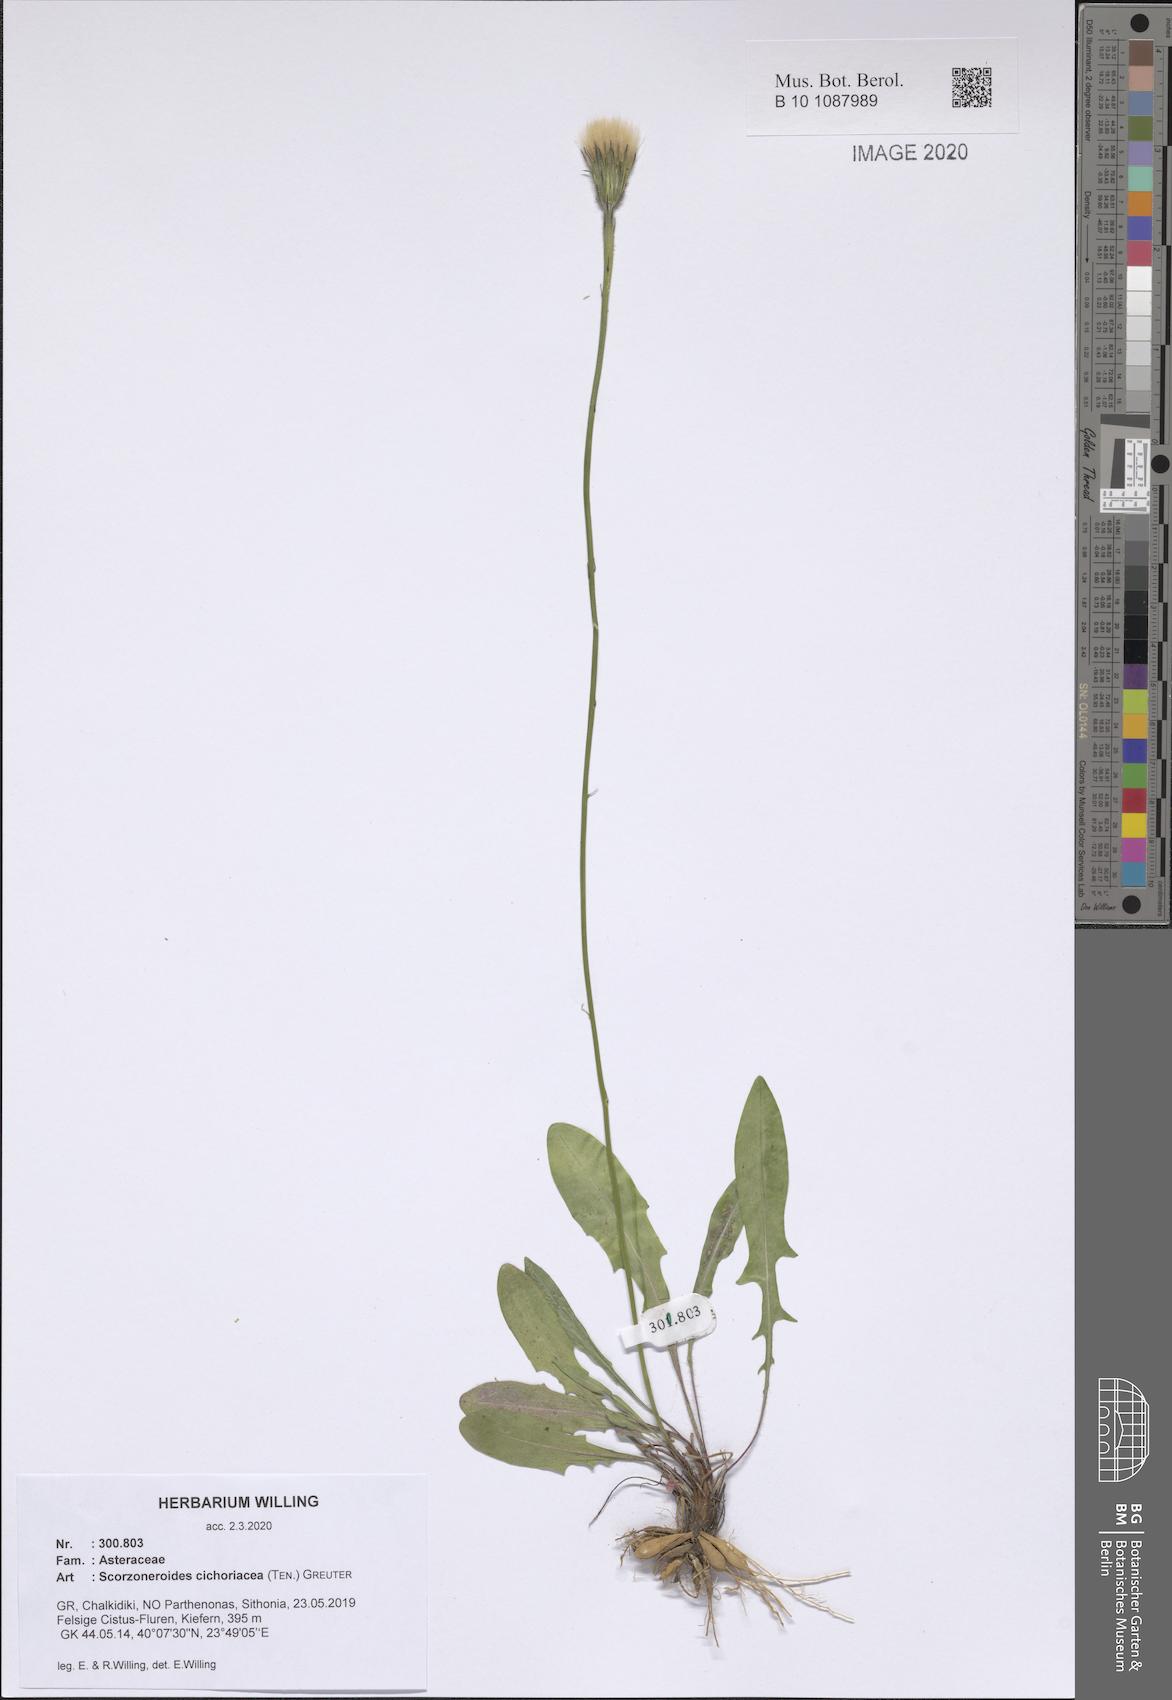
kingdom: Plantae
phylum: Tracheophyta
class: Magnoliopsida
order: Asterales
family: Asteraceae
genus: Scorzoneroides
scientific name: Scorzoneroides cichoriacea
